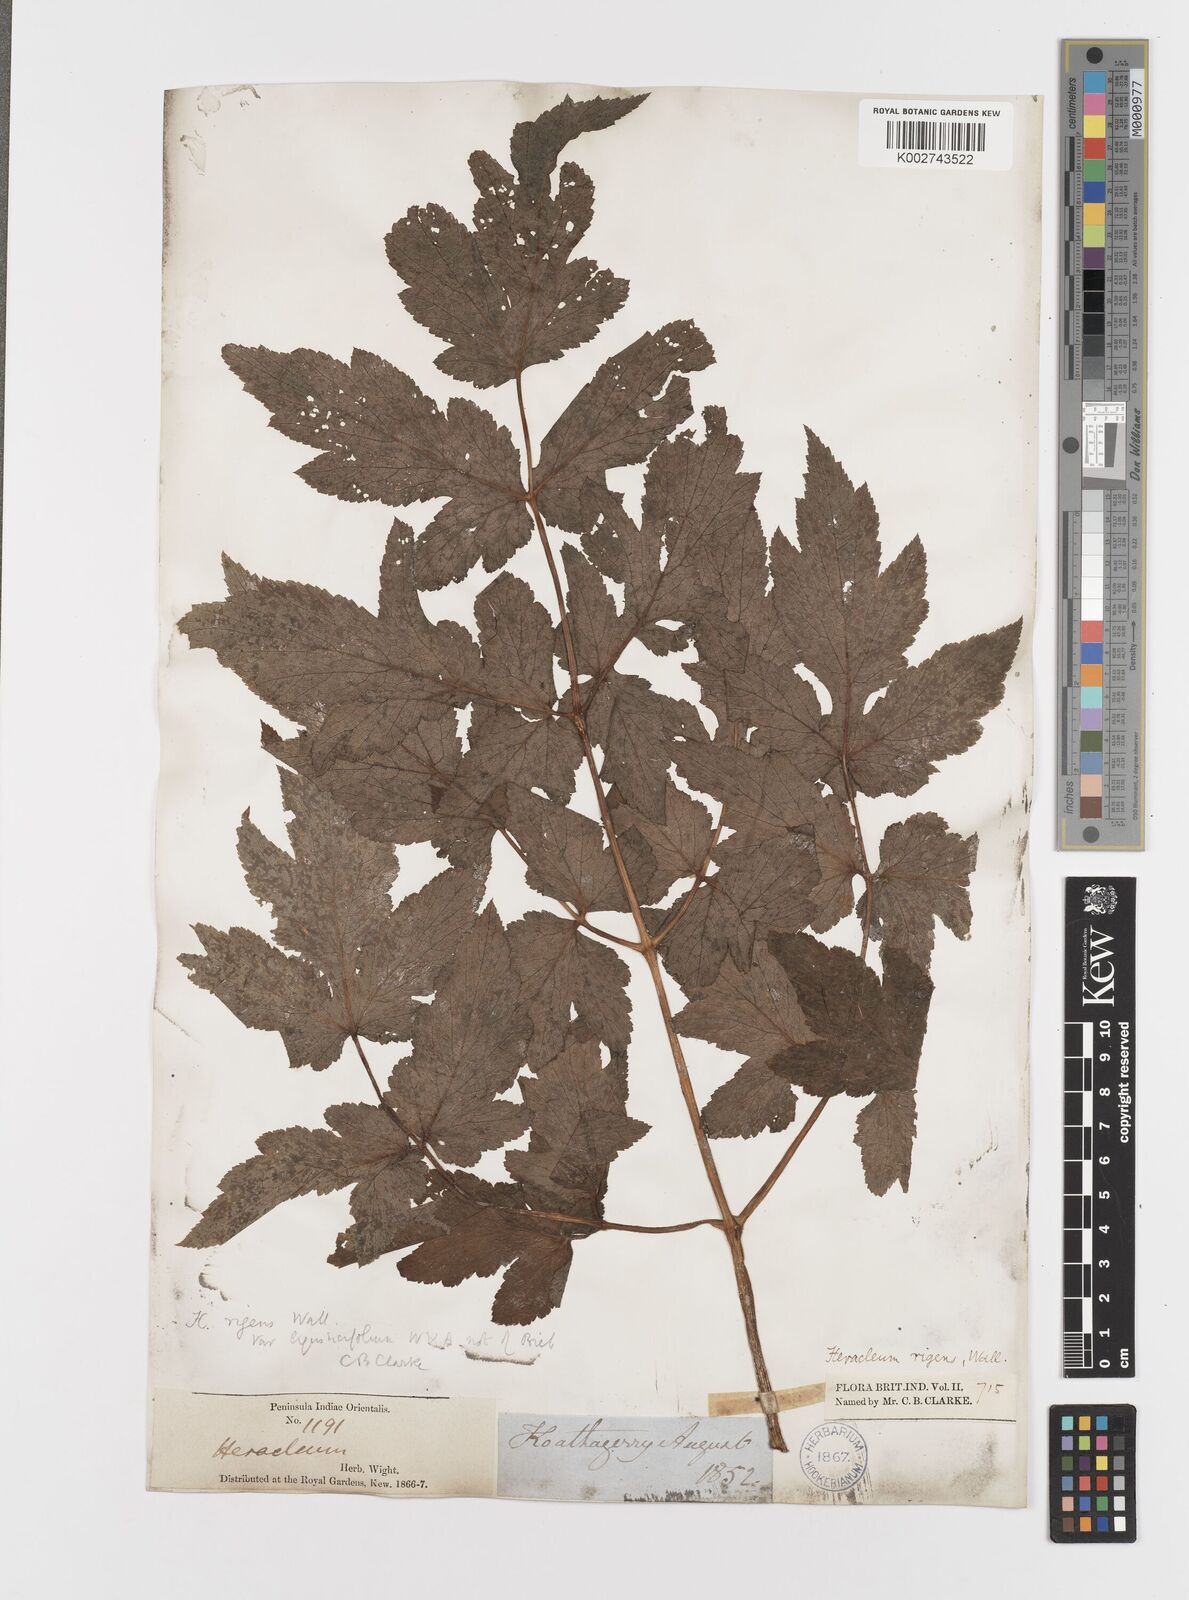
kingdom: Plantae
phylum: Tracheophyta
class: Magnoliopsida
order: Apiales
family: Apiaceae
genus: Tetrataenium
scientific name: Tetrataenium rigens
